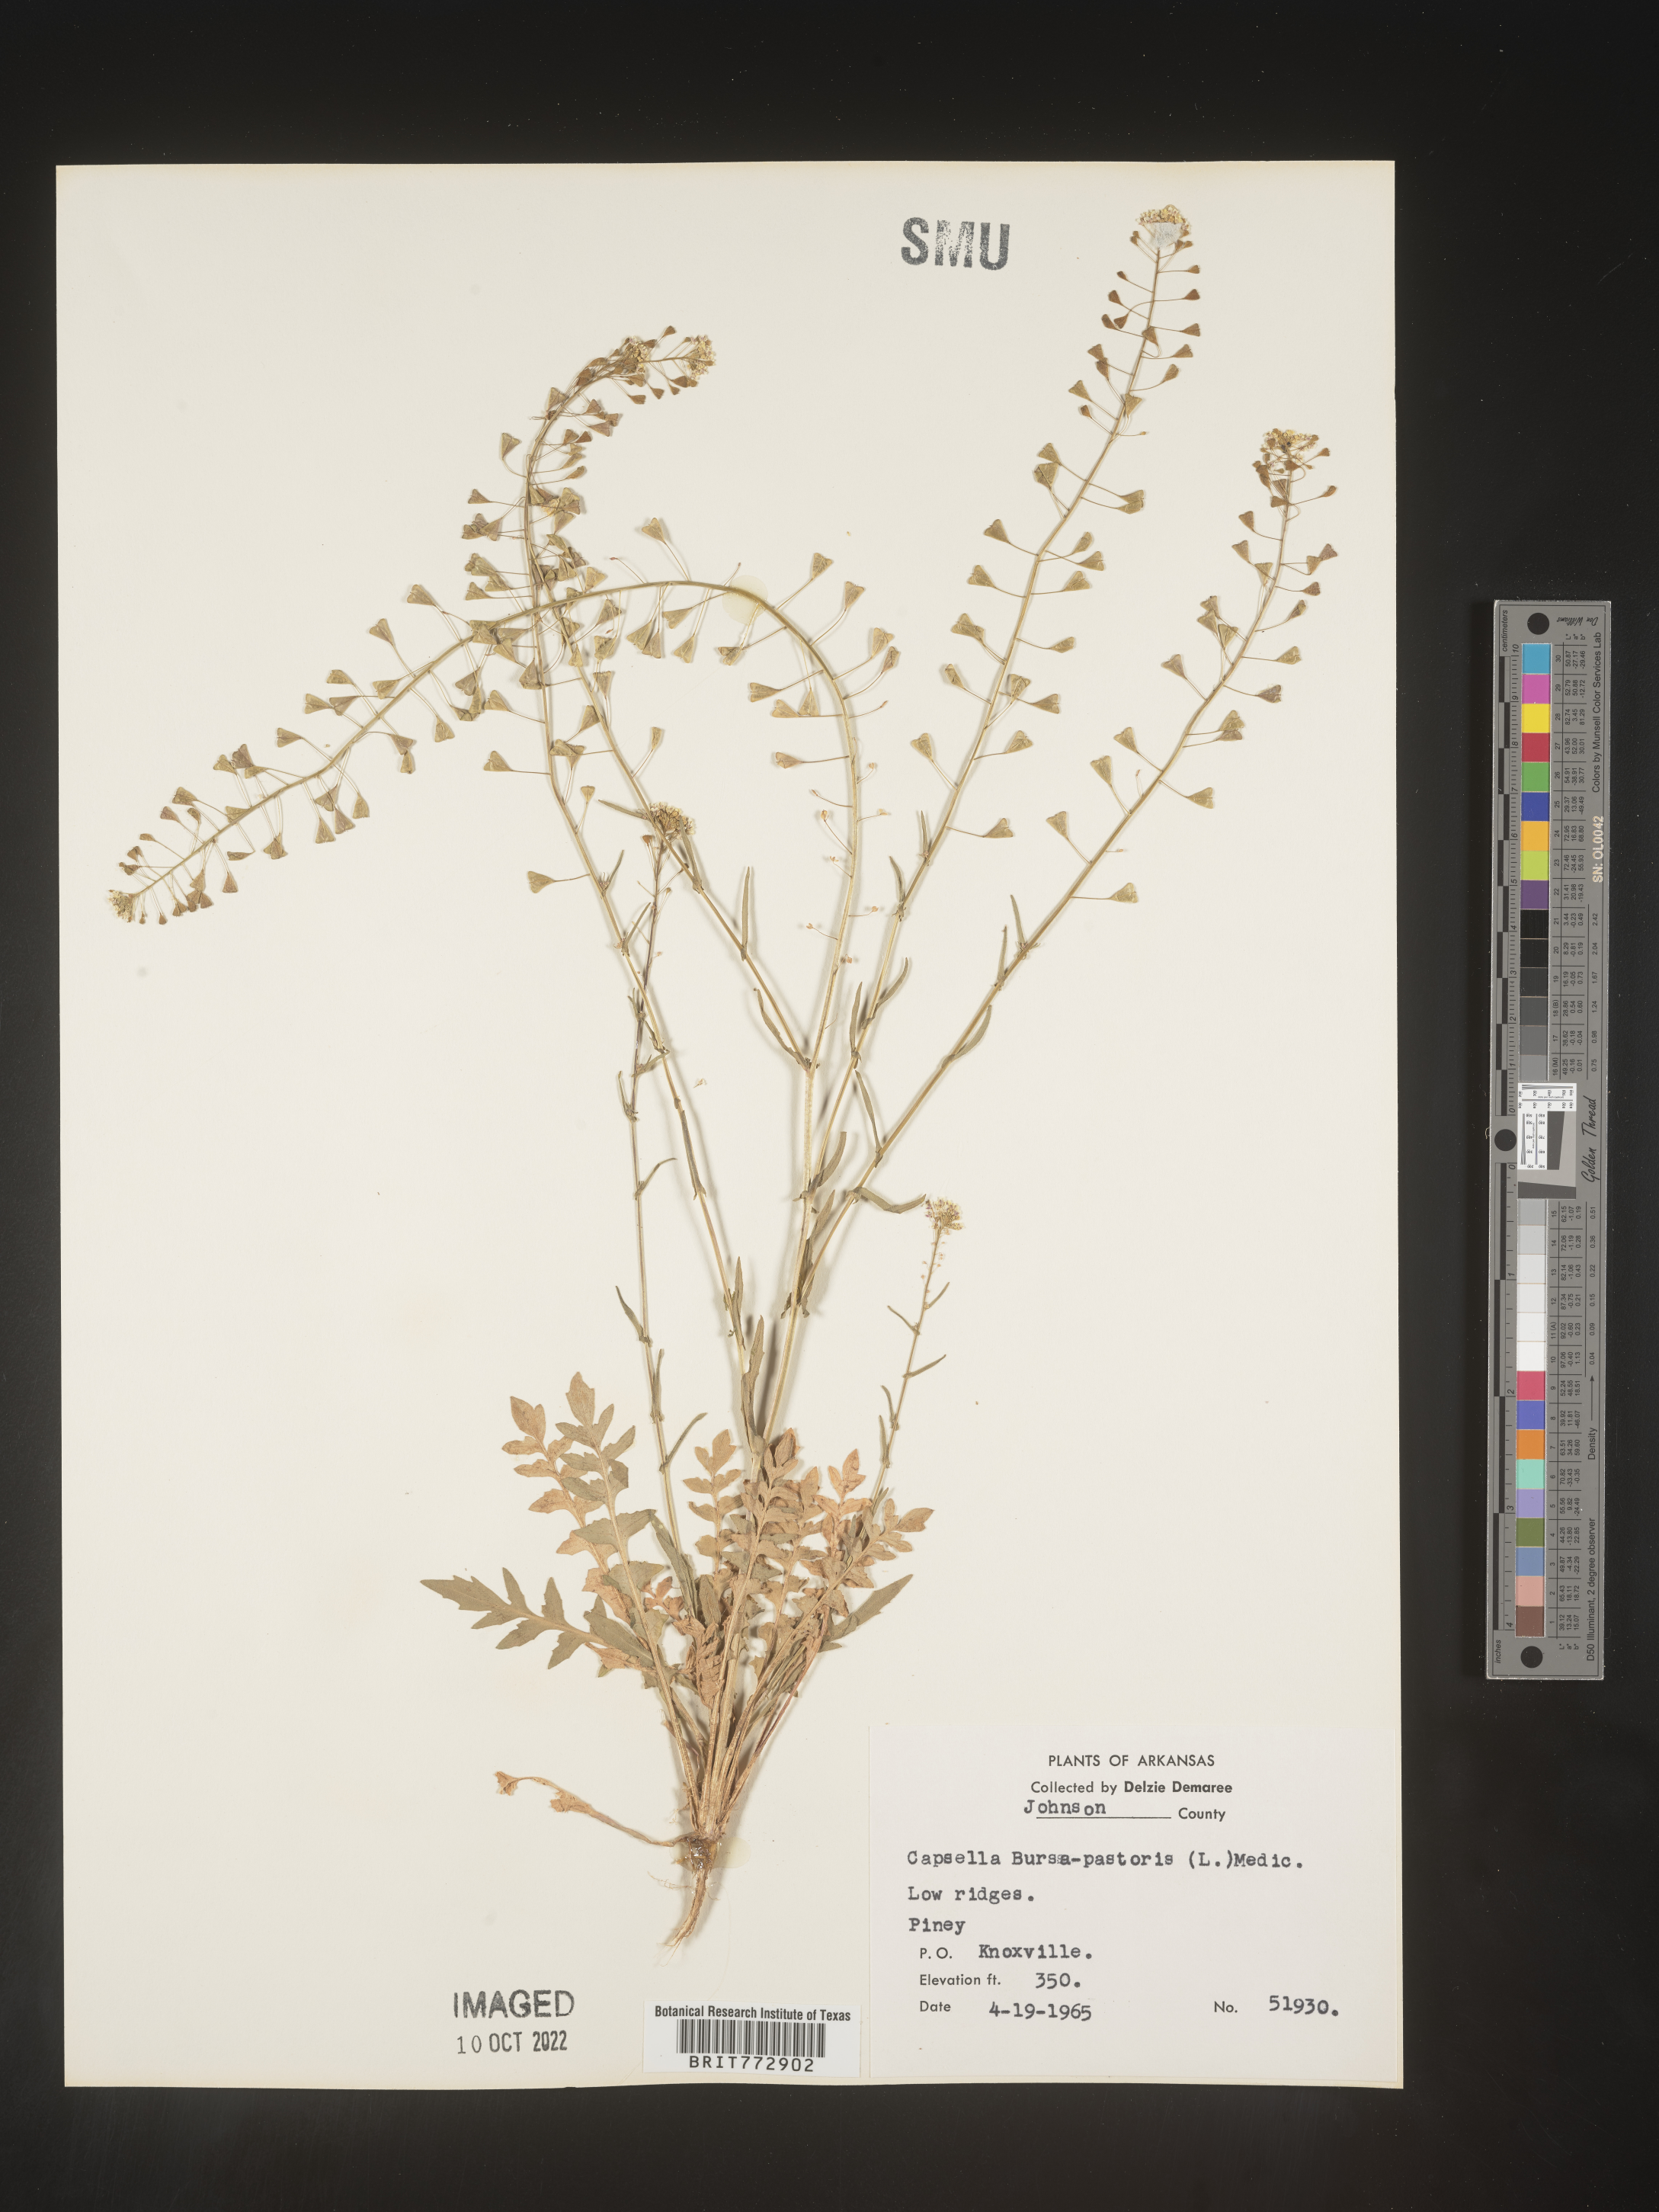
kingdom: Plantae
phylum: Tracheophyta
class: Magnoliopsida
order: Brassicales
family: Brassicaceae
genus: Capsella
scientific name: Capsella bursa-pastoris
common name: Shepherd's purse
